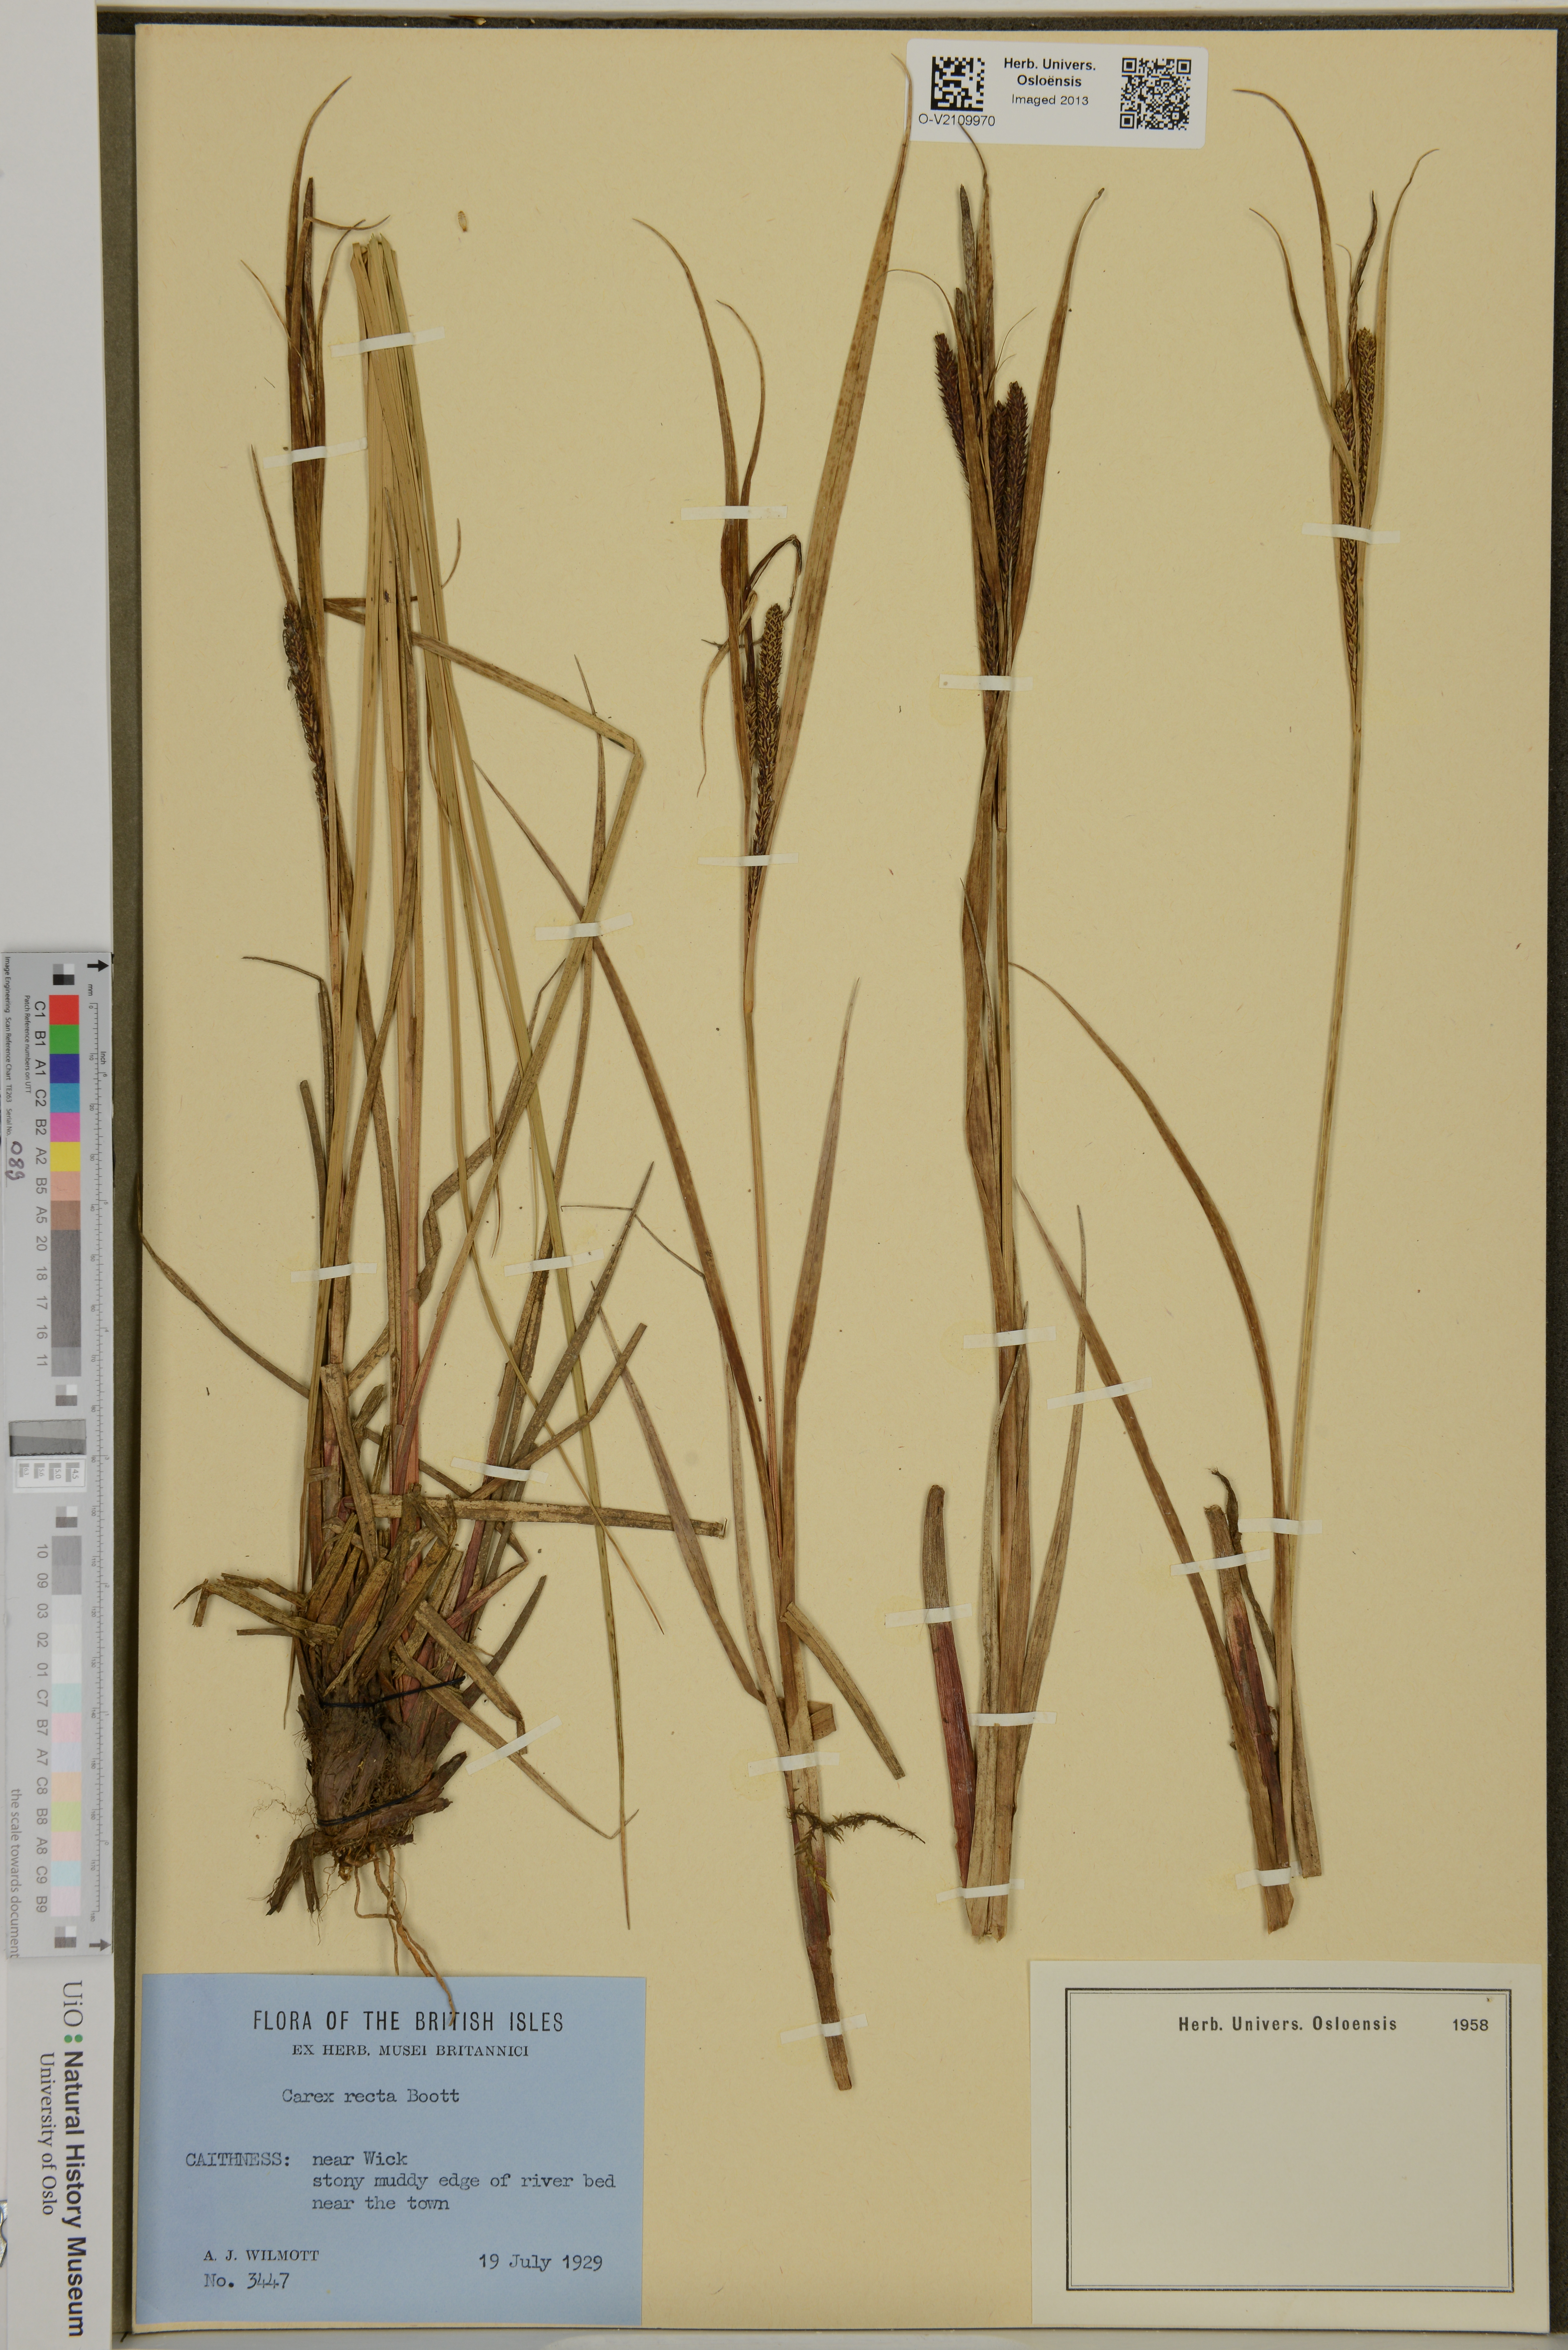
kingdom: Plantae
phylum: Tracheophyta
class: Liliopsida
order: Poales
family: Cyperaceae
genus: Carex
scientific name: Carex recta
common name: Estuarine sedge
